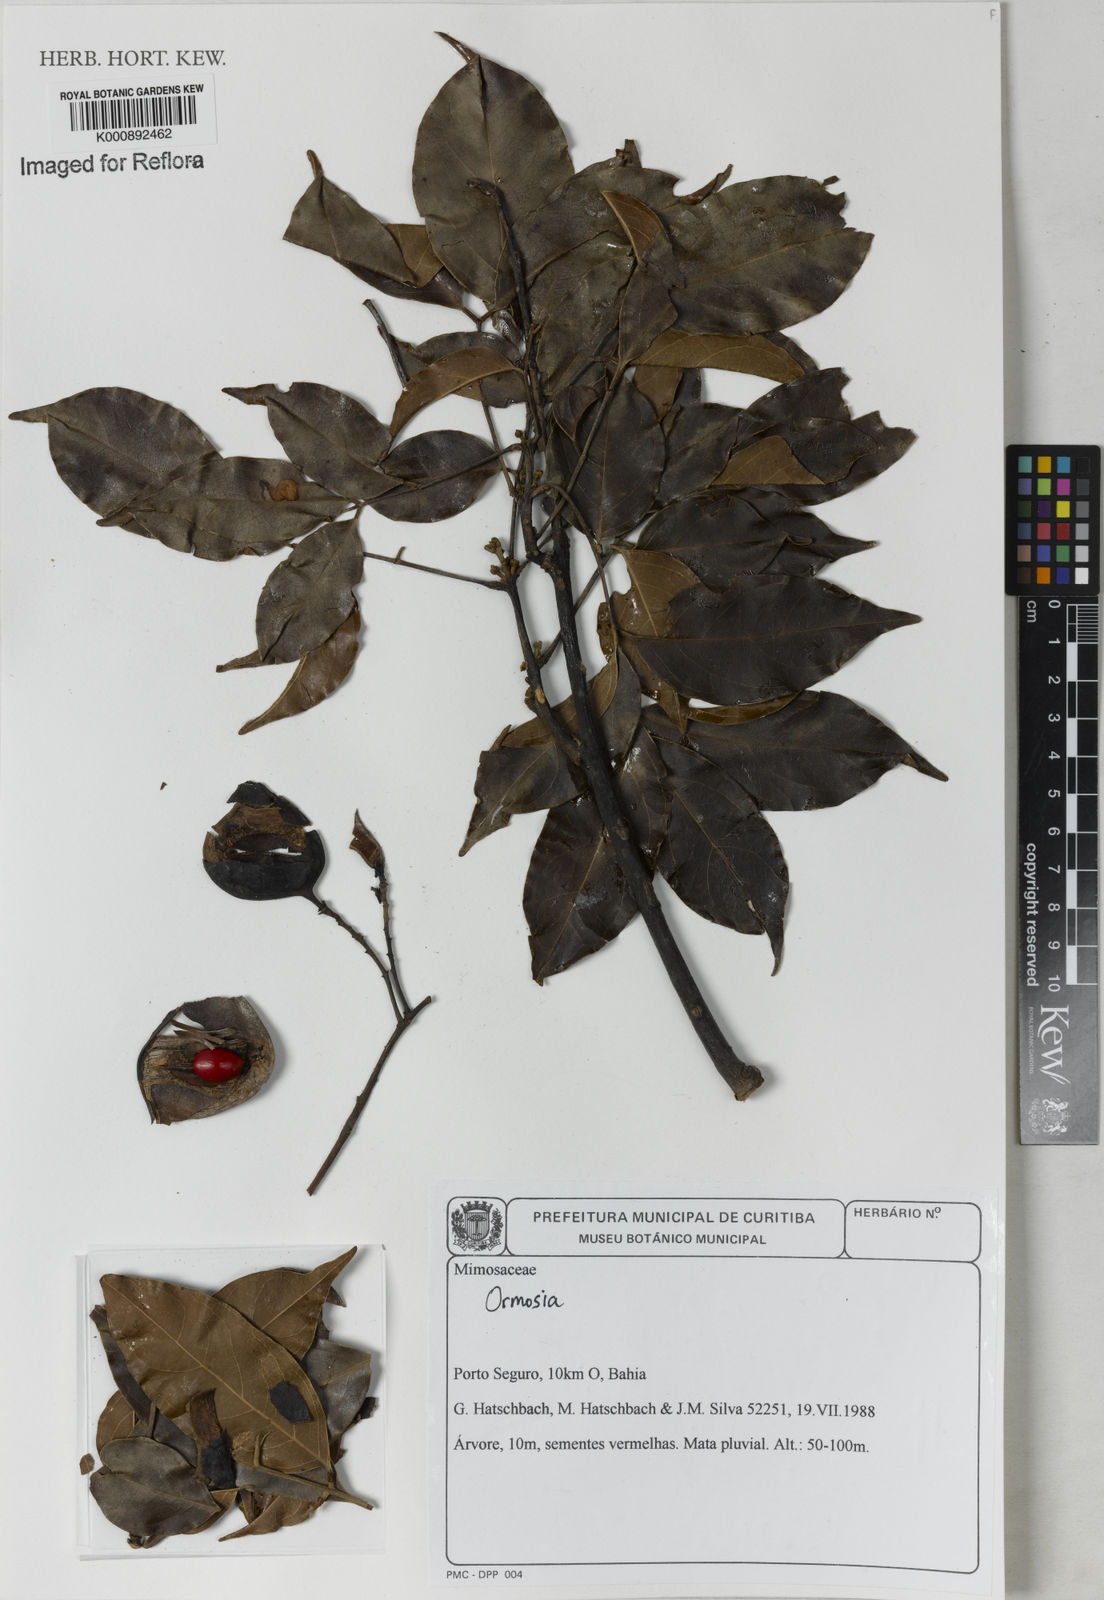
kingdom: Plantae
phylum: Tracheophyta
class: Magnoliopsida
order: Fabales
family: Fabaceae
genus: Ormosia
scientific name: Ormosia
